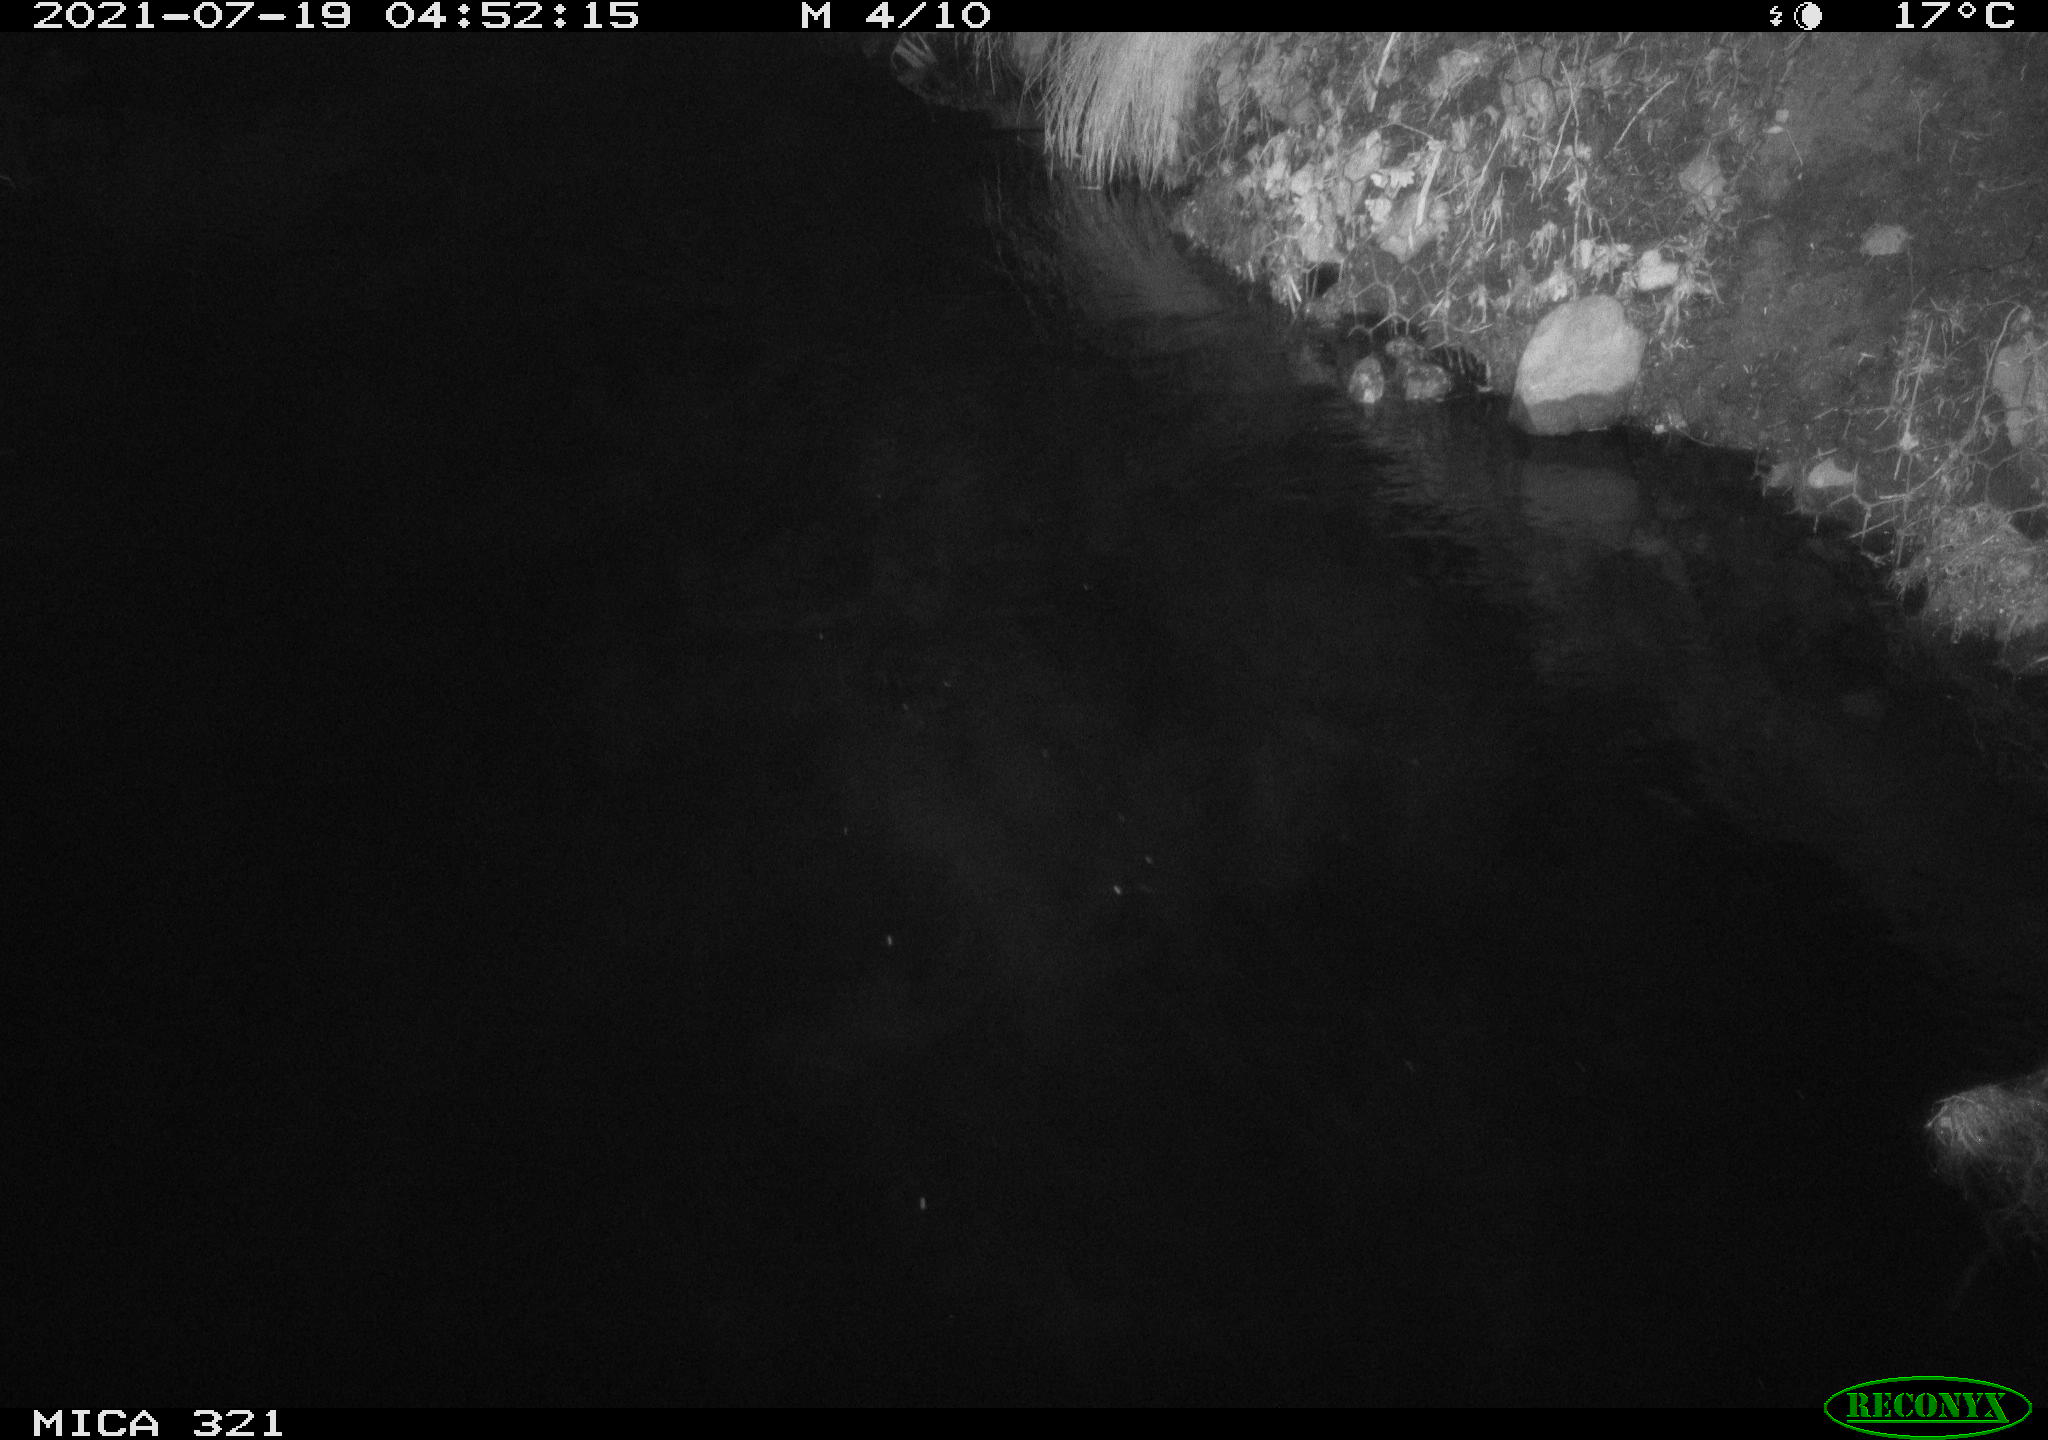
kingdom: Animalia
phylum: Chordata
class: Aves
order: Anseriformes
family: Anatidae
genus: Anas
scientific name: Anas platyrhynchos
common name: Mallard
